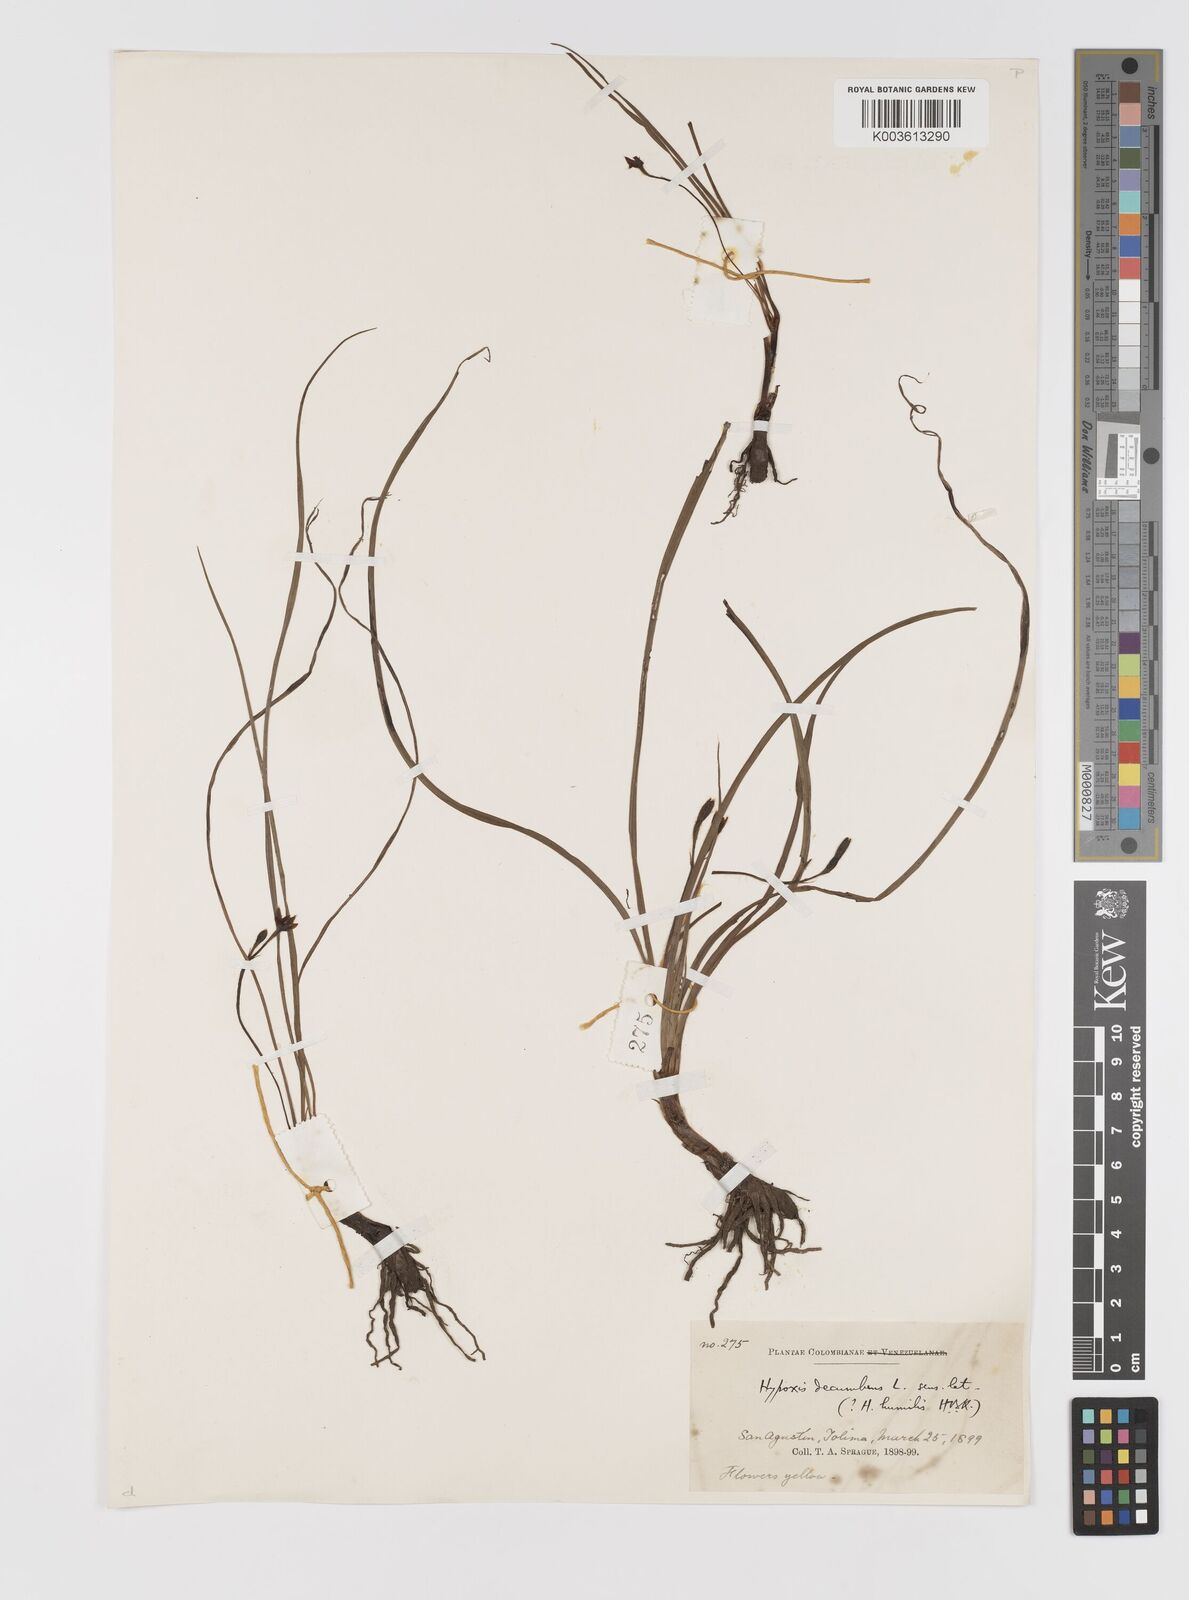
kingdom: Plantae
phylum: Tracheophyta
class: Liliopsida
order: Asparagales
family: Hypoxidaceae
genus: Hypoxis
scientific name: Hypoxis decumbens
